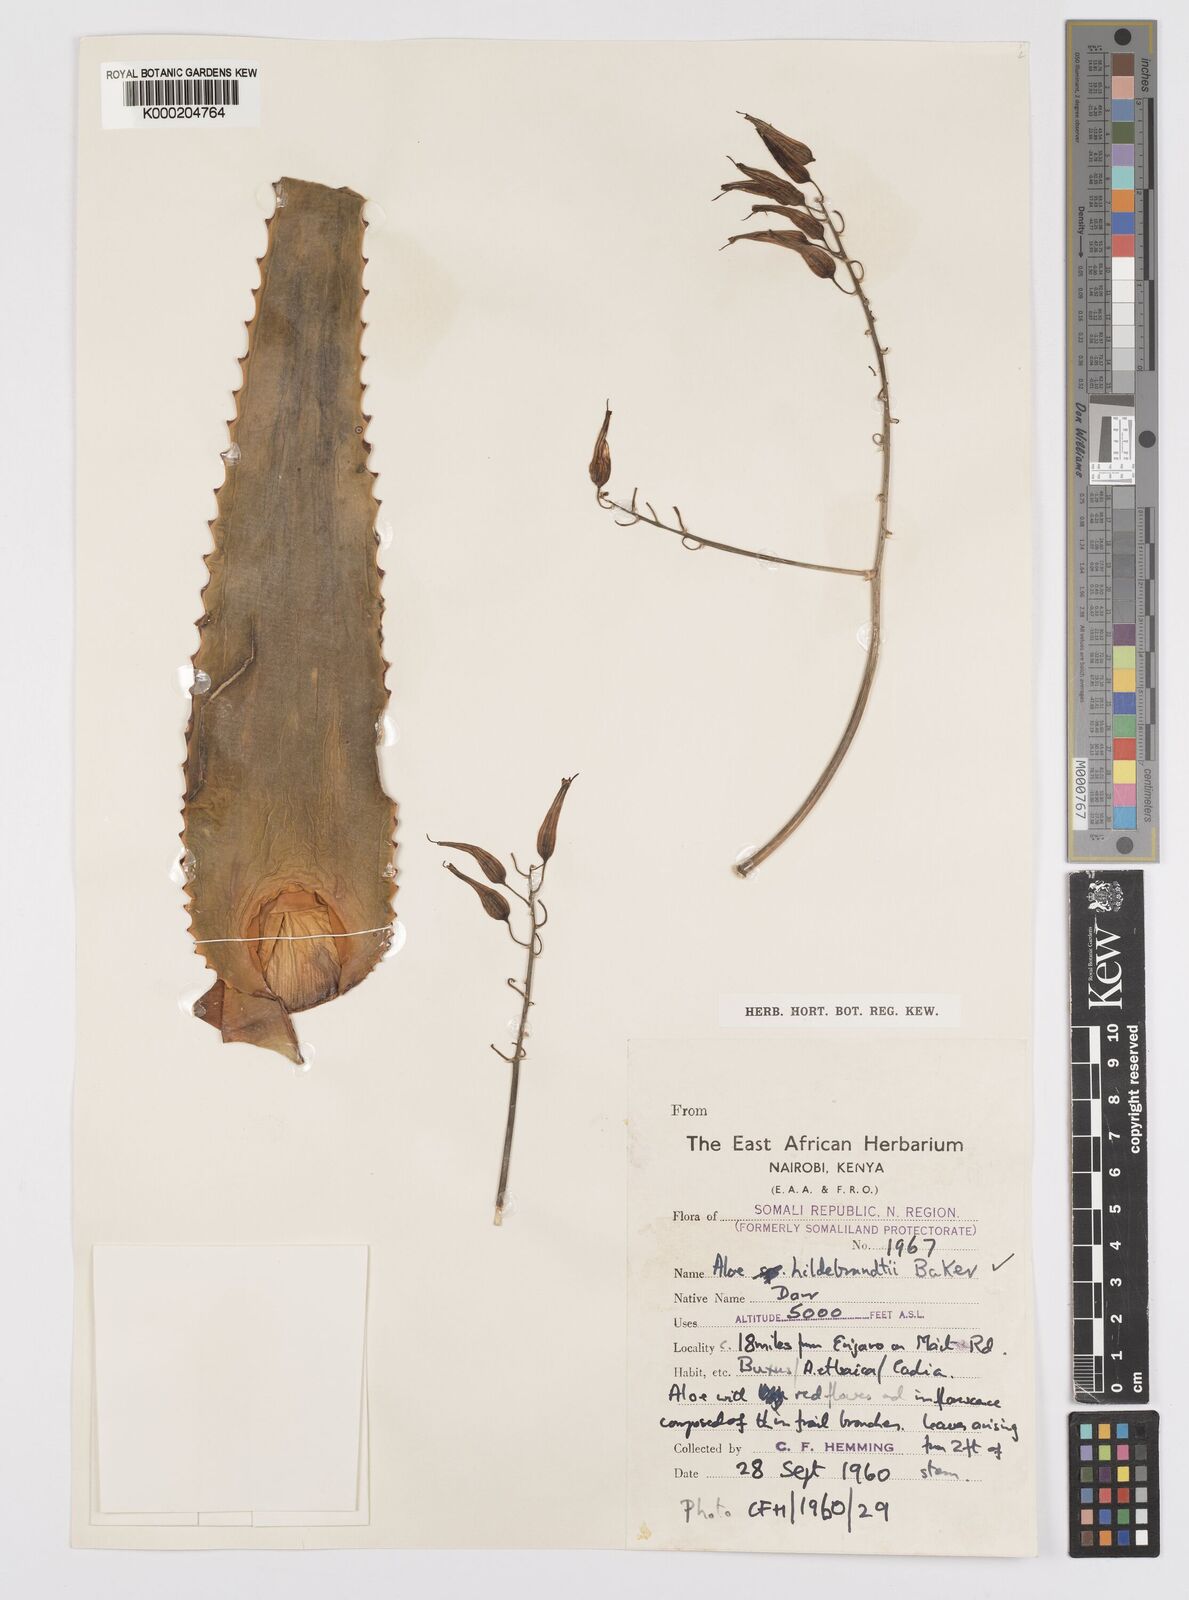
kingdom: Plantae
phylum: Tracheophyta
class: Liliopsida
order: Asparagales
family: Asphodelaceae
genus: Aloe
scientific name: Aloe hildebrandtii
